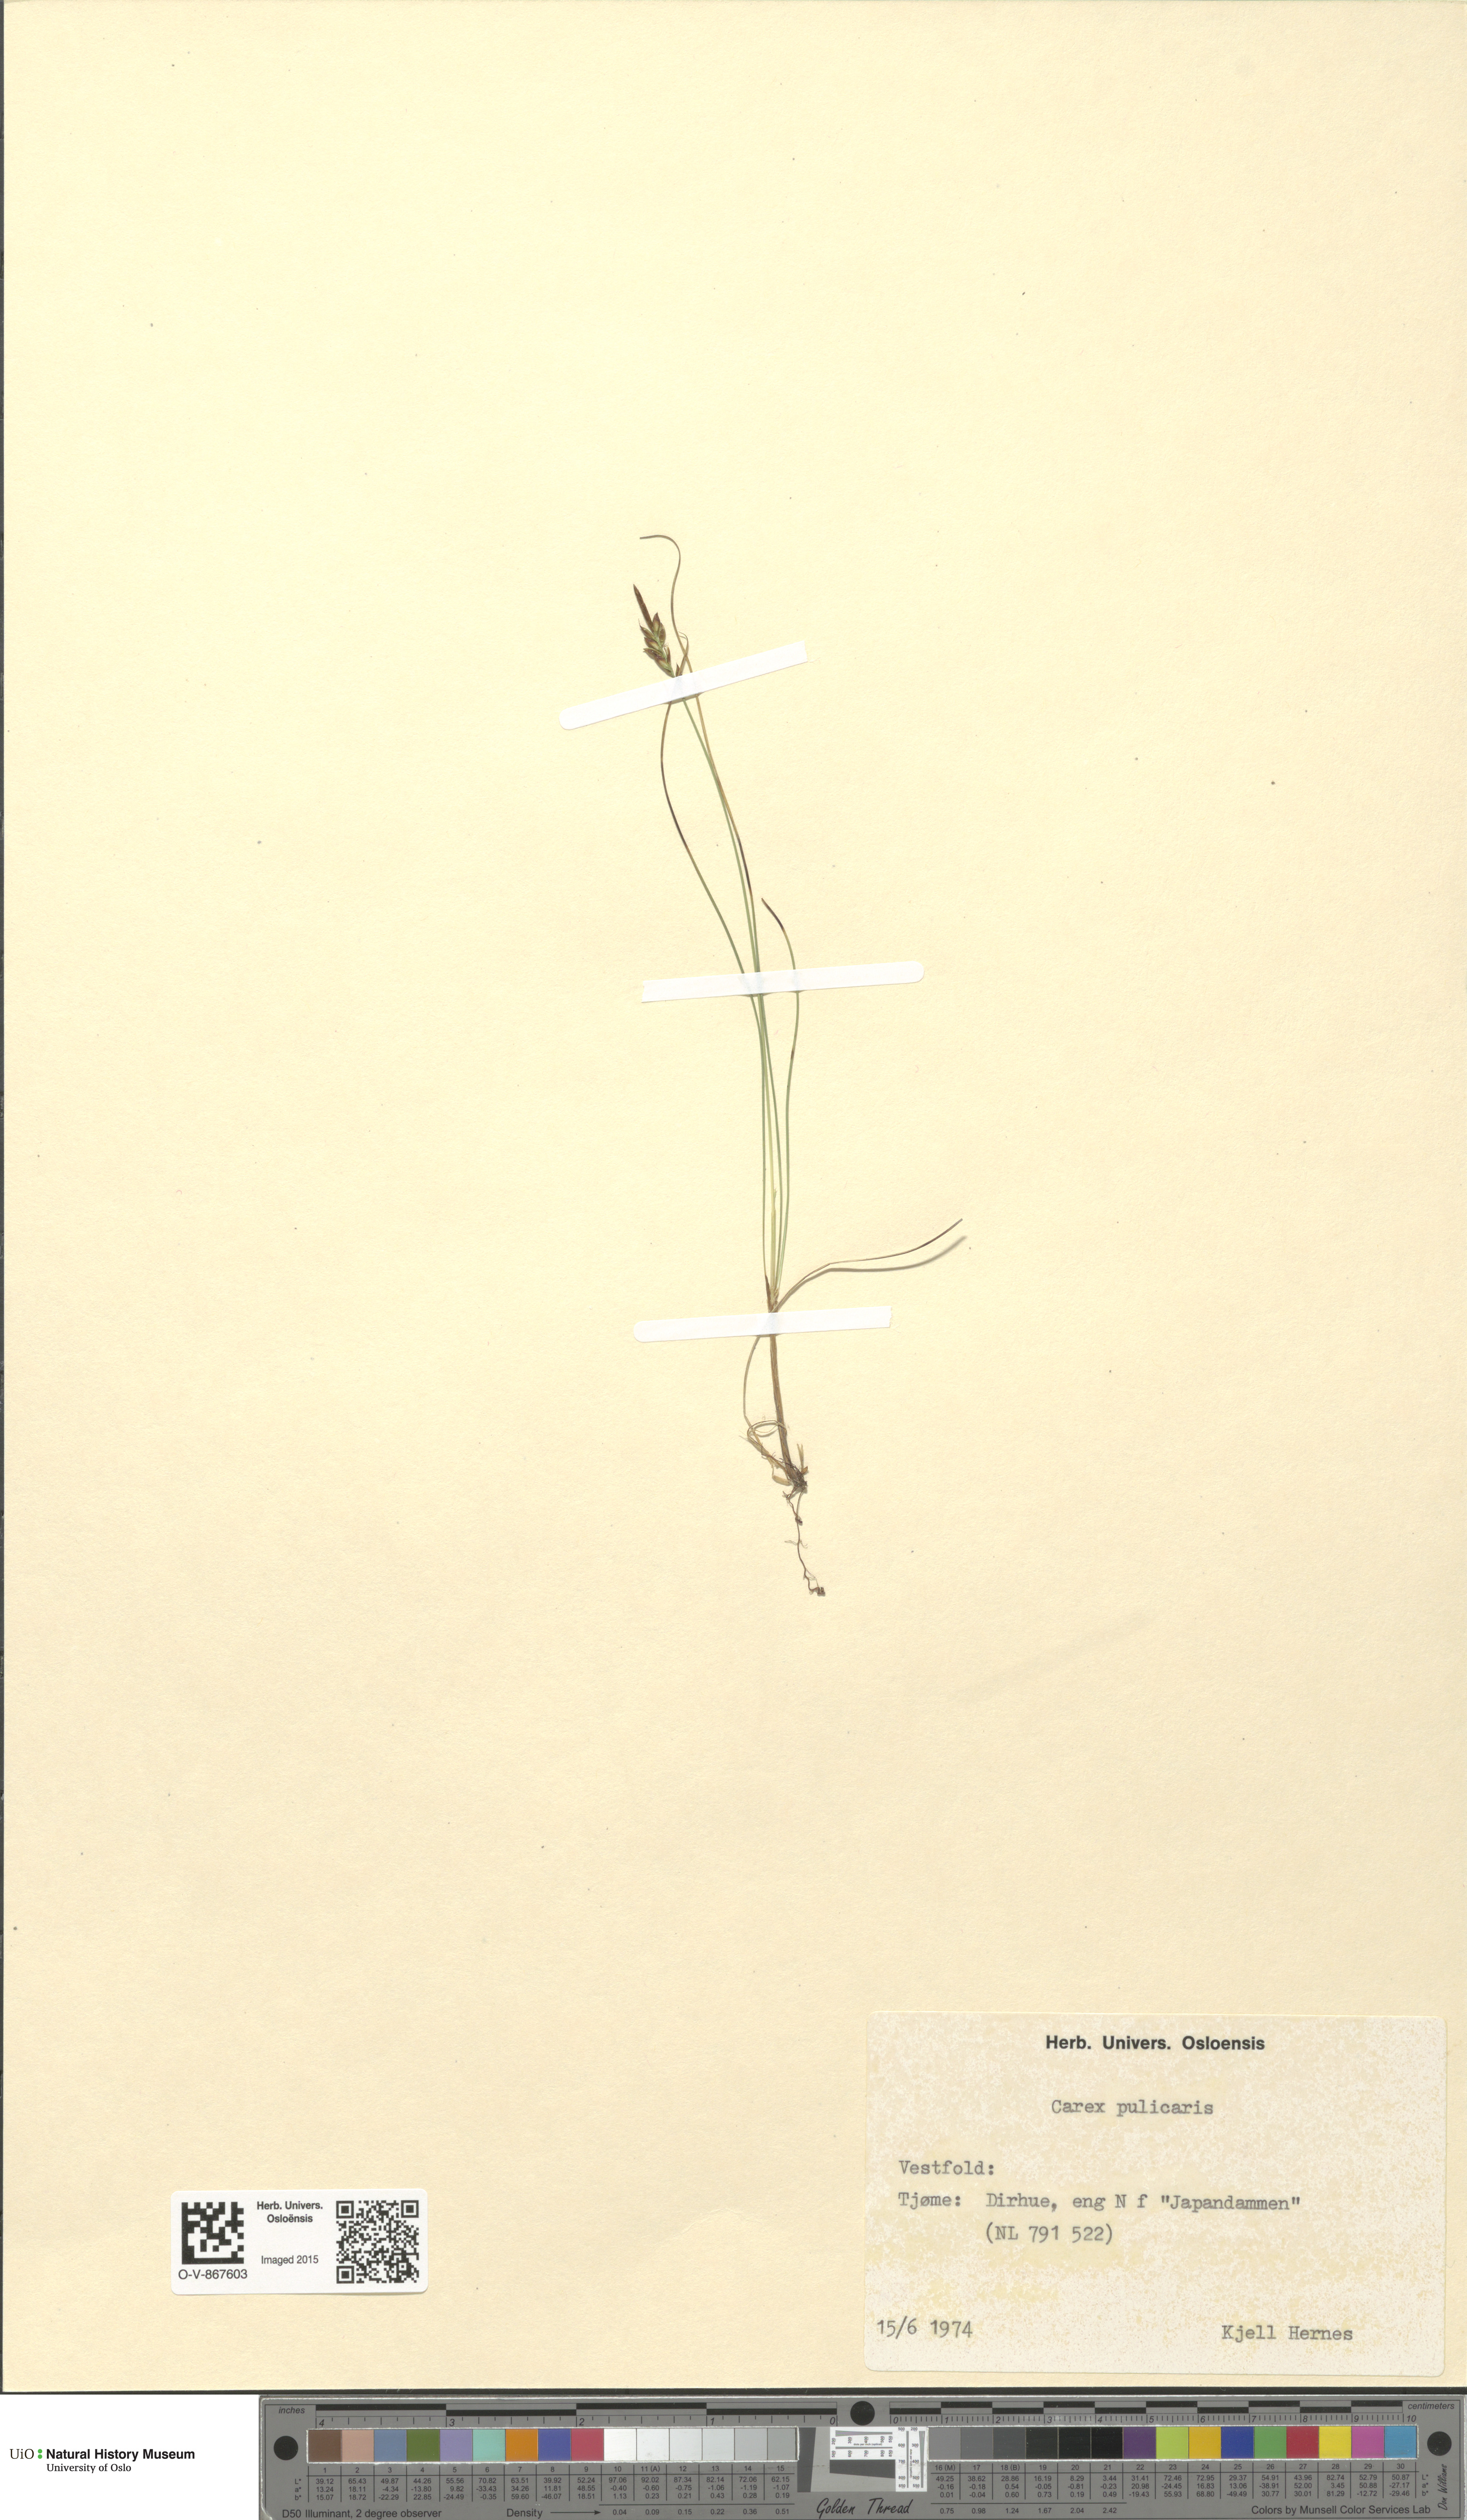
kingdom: Plantae
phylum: Tracheophyta
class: Liliopsida
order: Poales
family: Cyperaceae
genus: Carex
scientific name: Carex pulicaris
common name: Flea sedge
